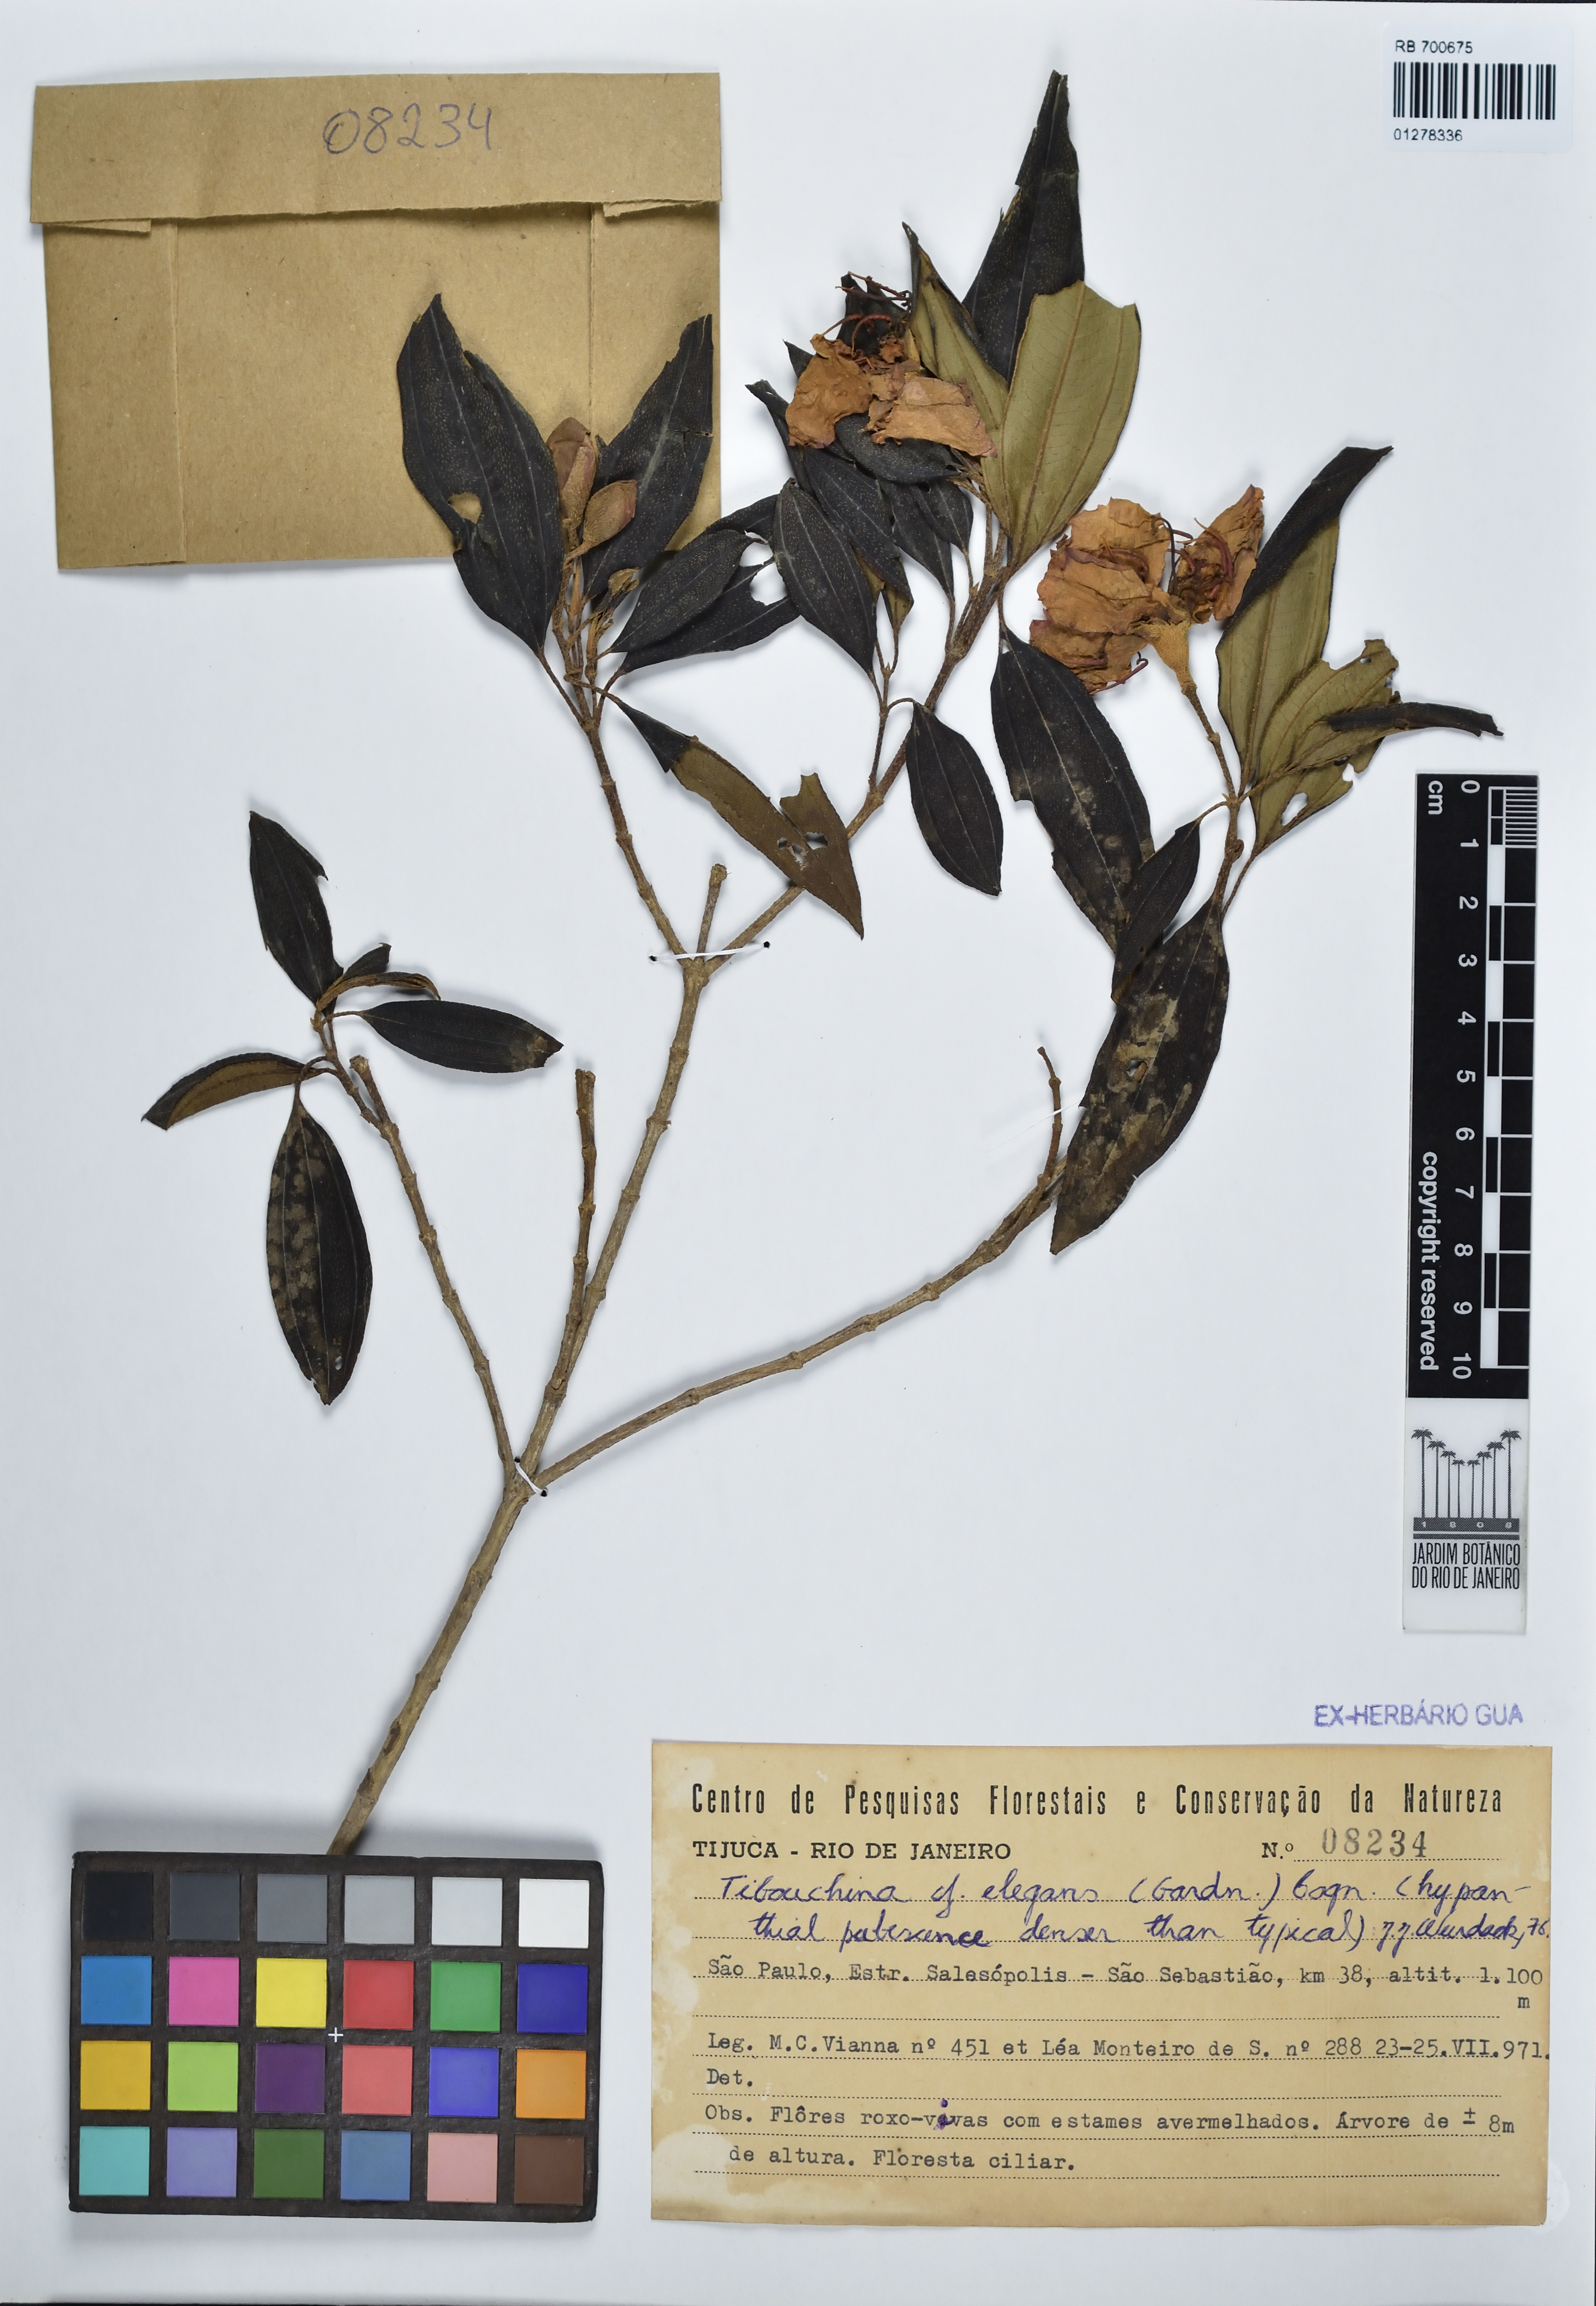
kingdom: Plantae
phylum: Tracheophyta
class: Magnoliopsida
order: Myrtales
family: Melastomataceae
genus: Pleroma
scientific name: Pleroma arboreum
